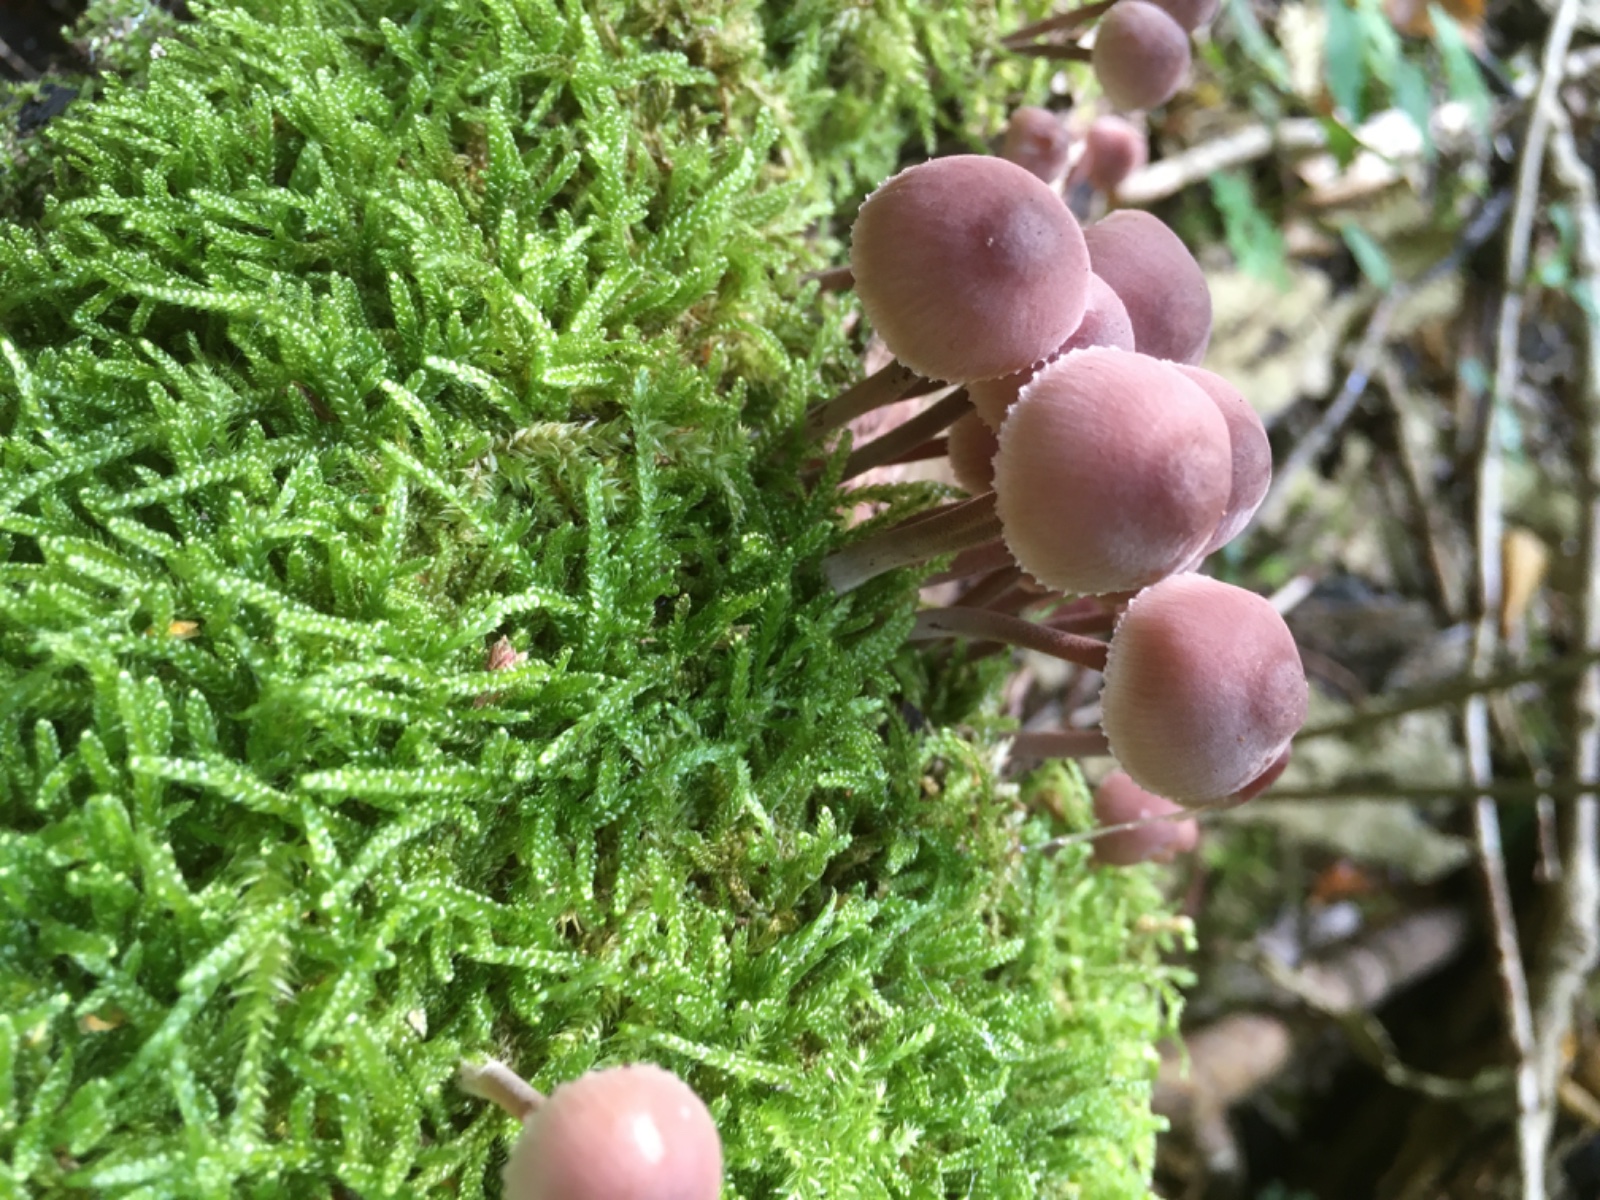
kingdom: Fungi
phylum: Basidiomycota
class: Agaricomycetes
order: Agaricales
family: Mycenaceae
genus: Mycena
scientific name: Mycena haematopus
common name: blødende huesvamp
